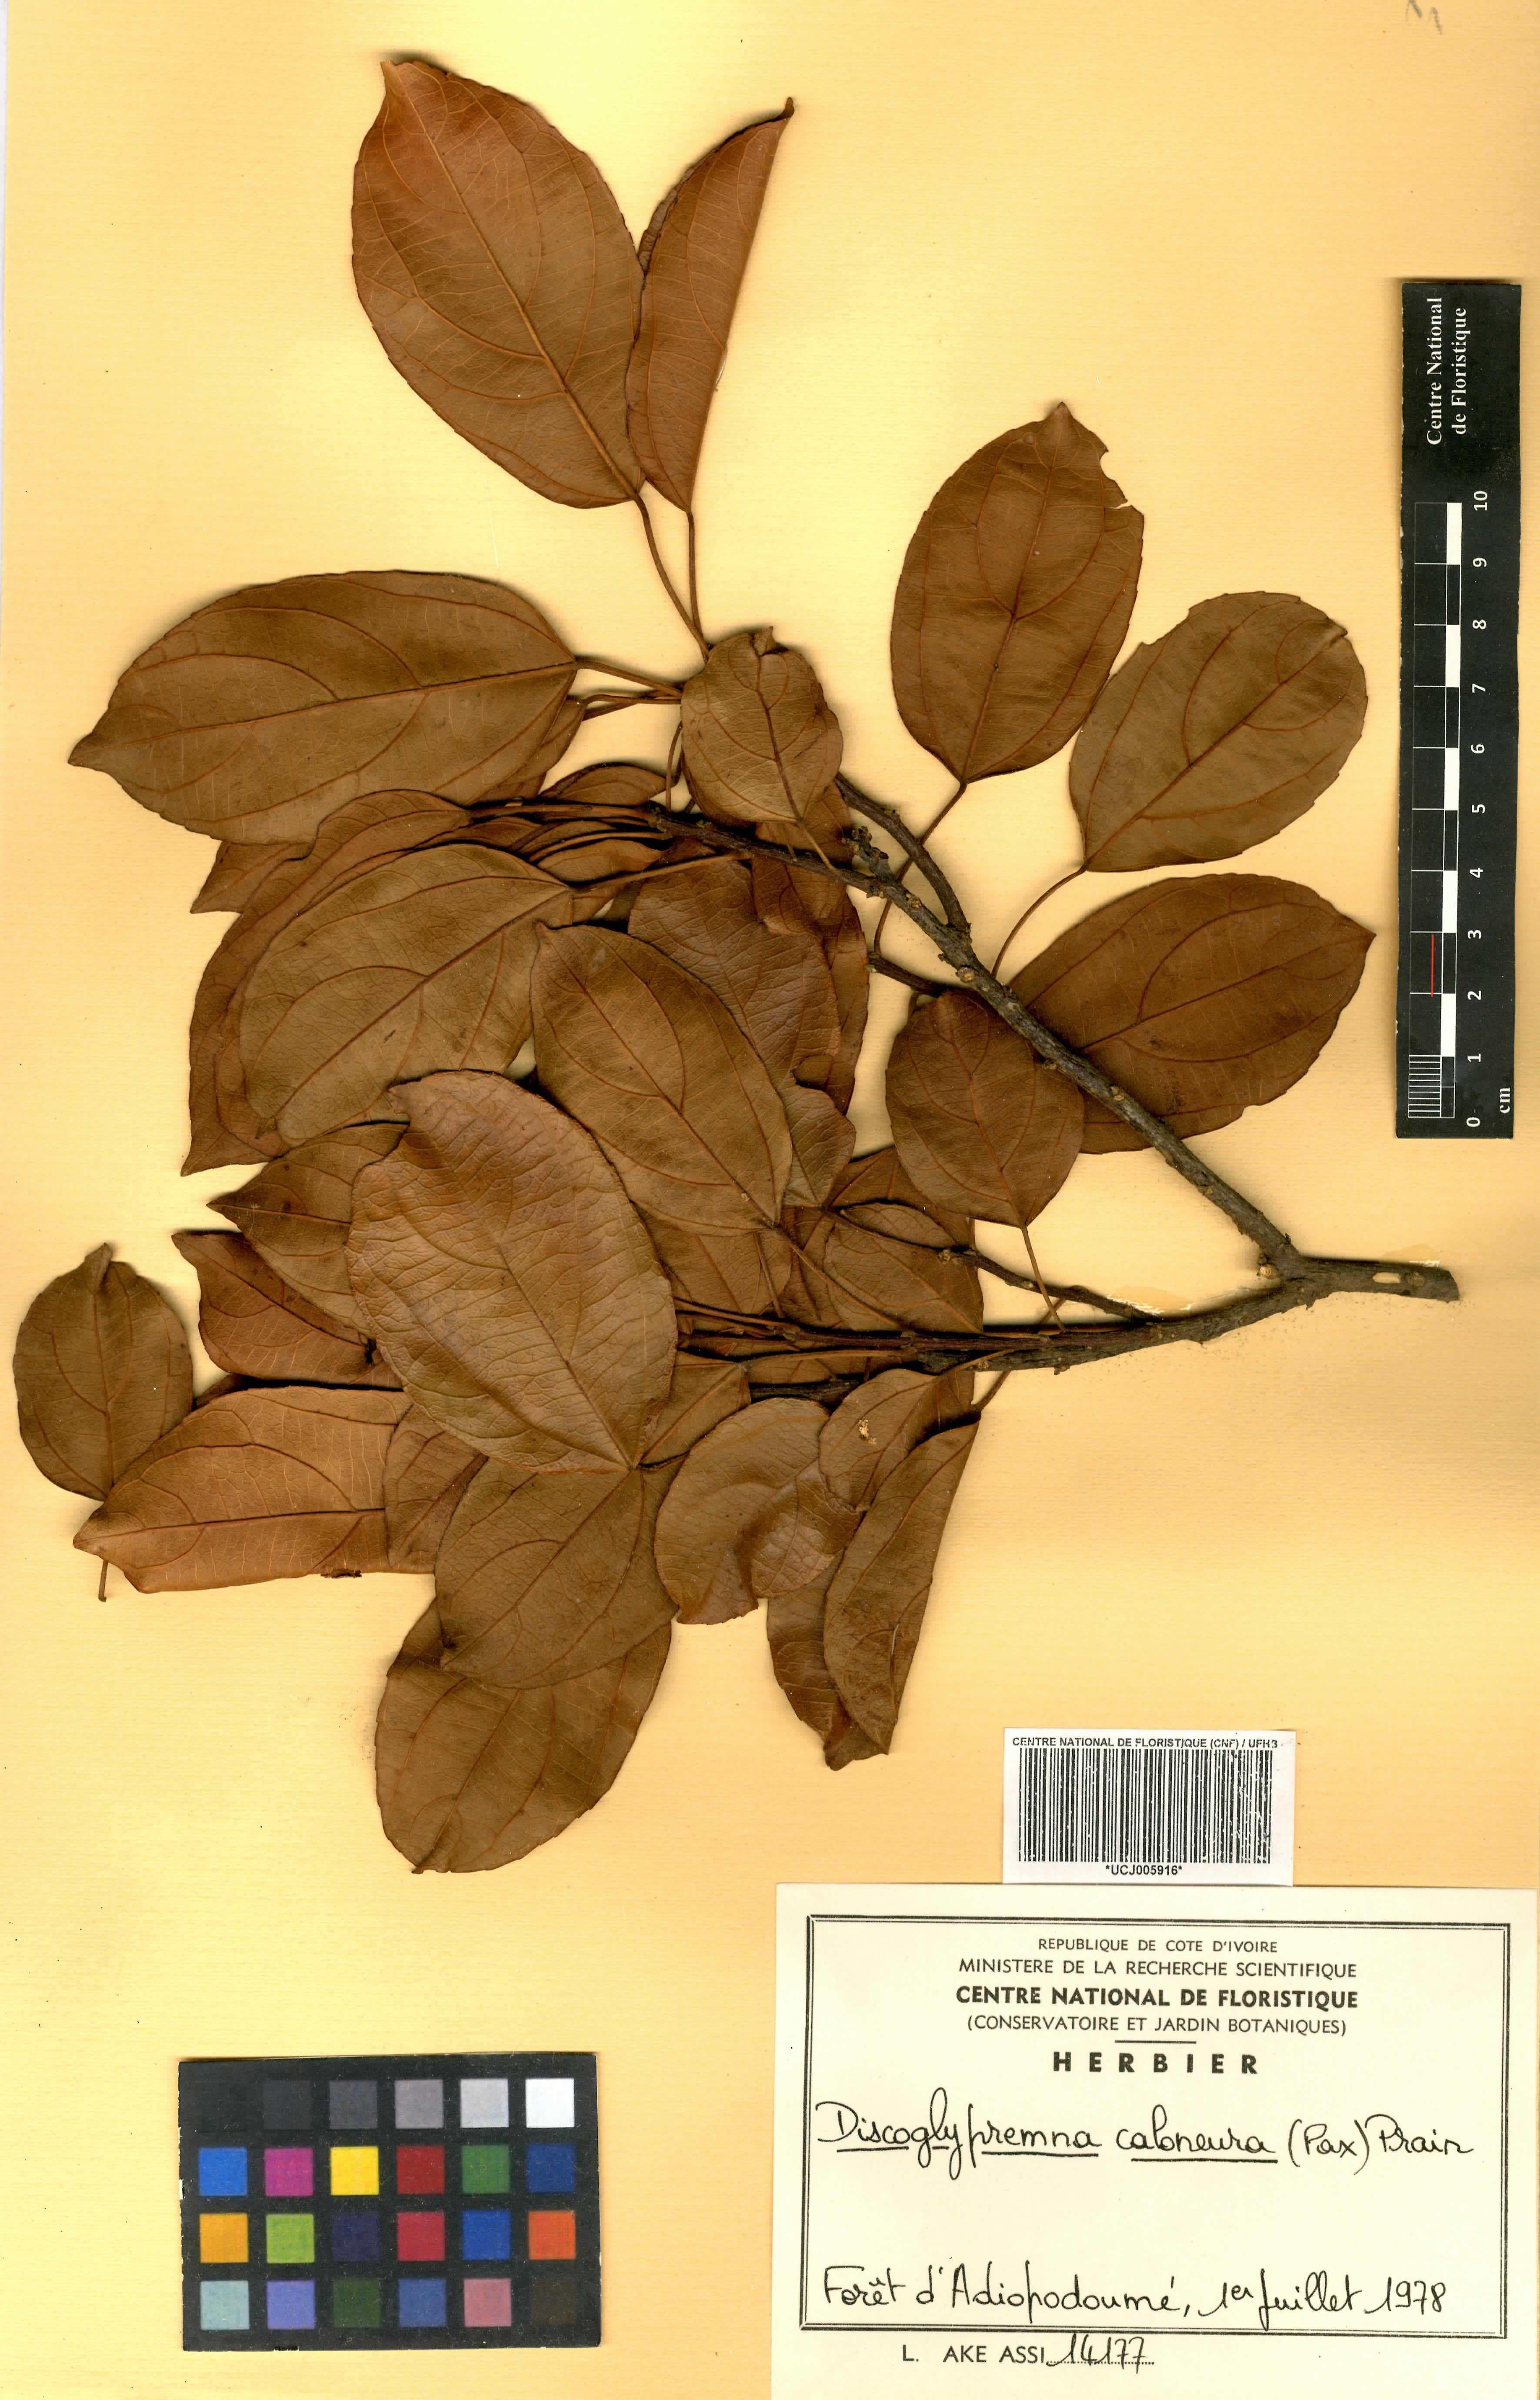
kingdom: Plantae
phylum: Tracheophyta
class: Magnoliopsida
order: Malpighiales
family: Euphorbiaceae
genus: Discoglypremna
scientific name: Discoglypremna caloneura
